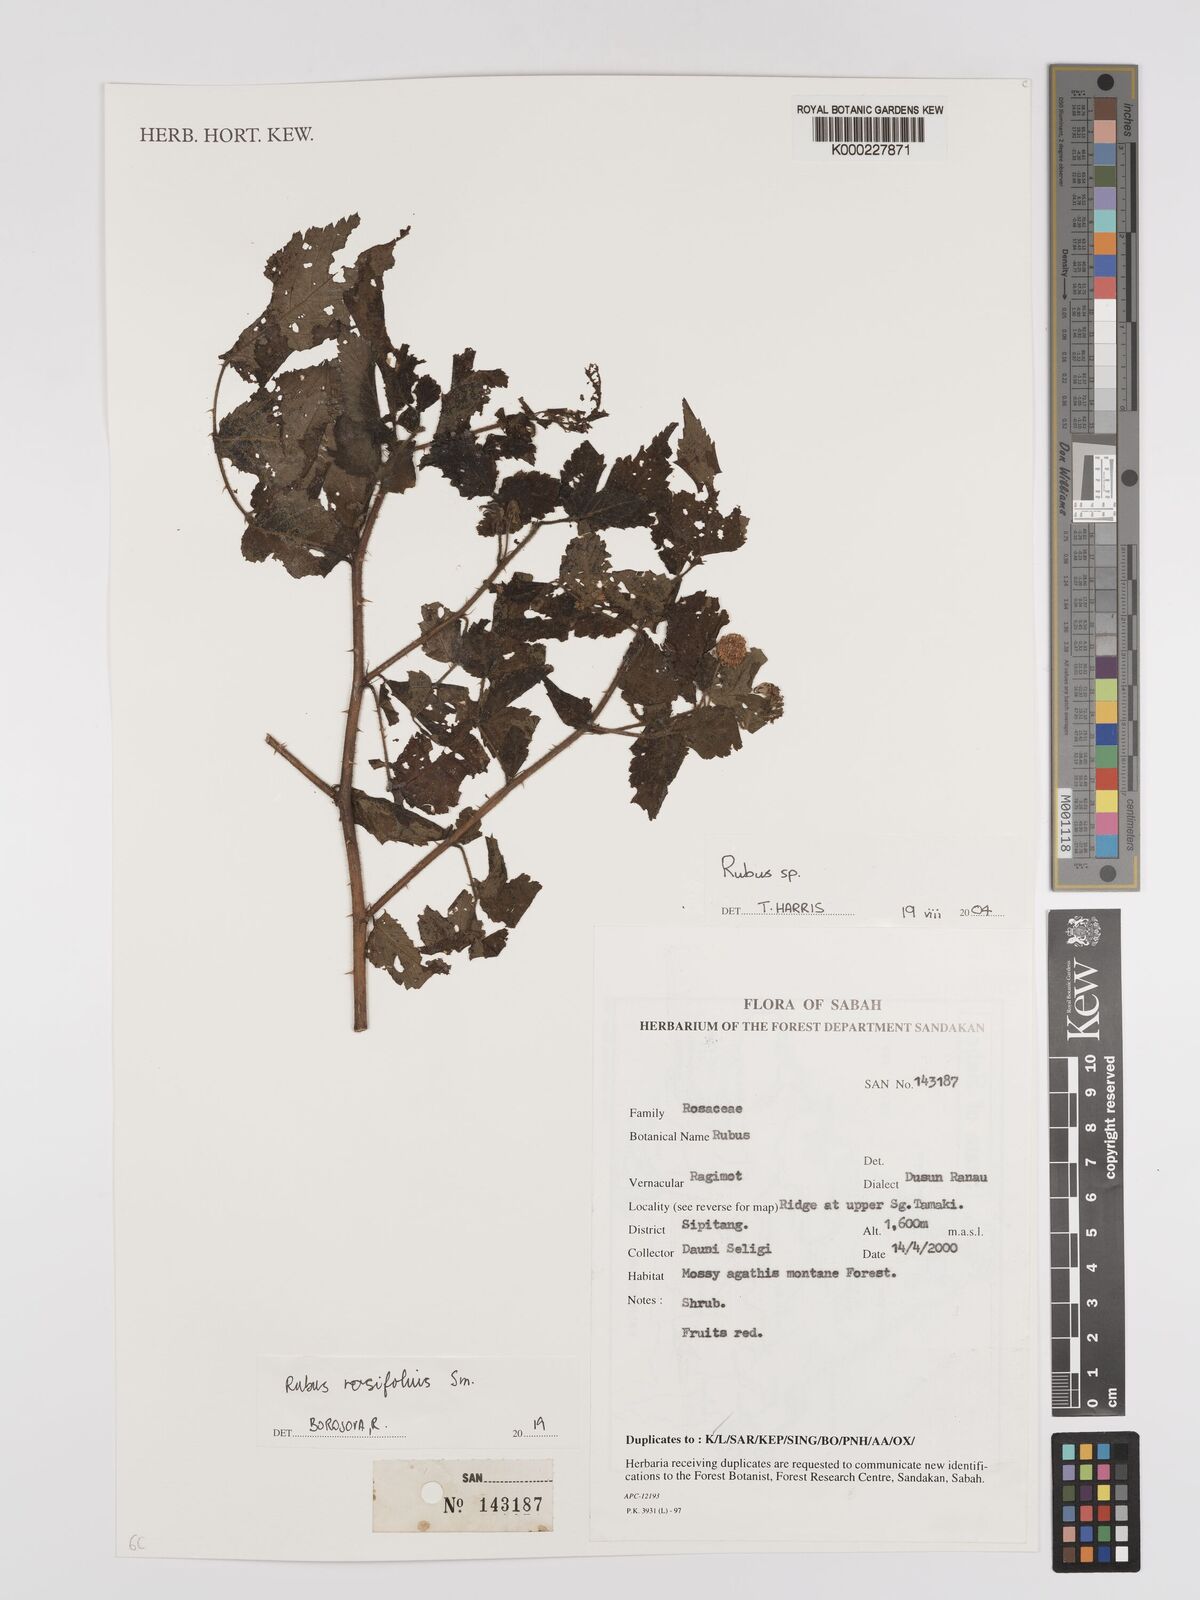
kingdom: Plantae
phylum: Tracheophyta
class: Magnoliopsida
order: Rosales
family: Rosaceae
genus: Rubus
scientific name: Rubus rosifolius
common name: Roseleaf raspberry
